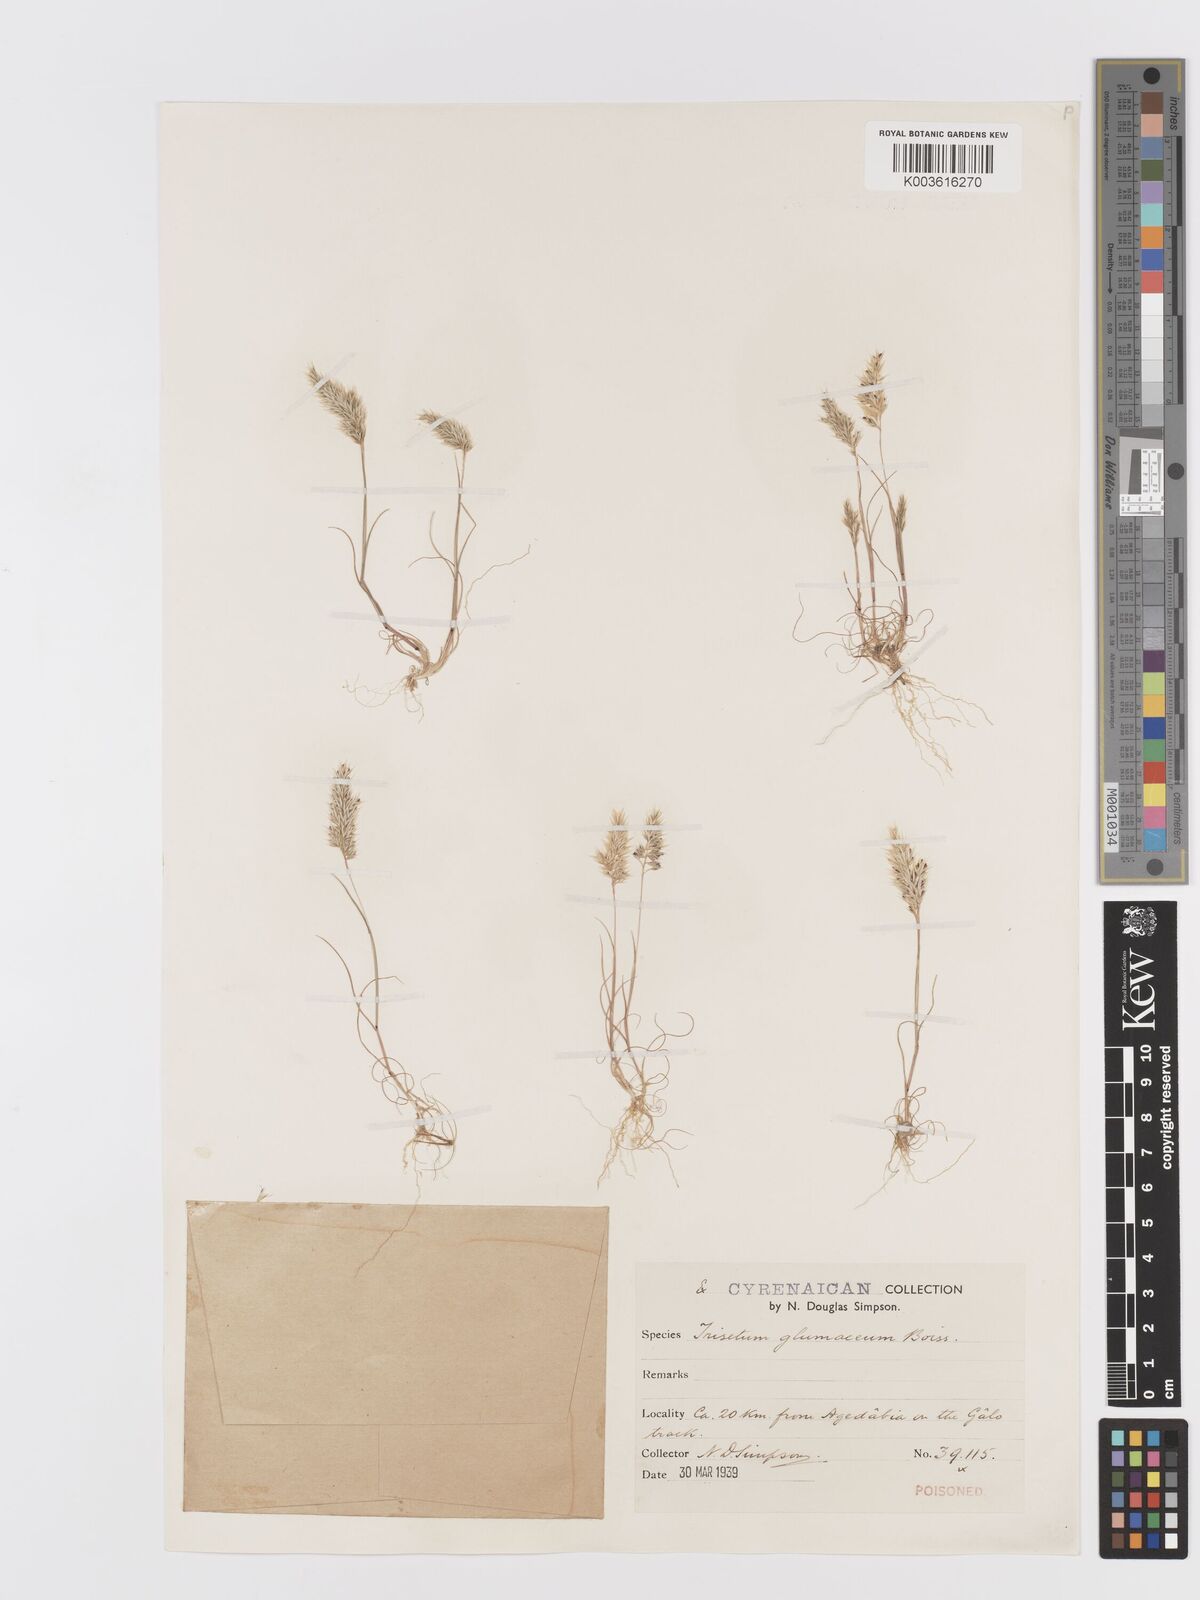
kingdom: Plantae
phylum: Tracheophyta
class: Liliopsida
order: Poales
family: Poaceae
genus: Trisetaria
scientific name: Trisetaria glumacea
